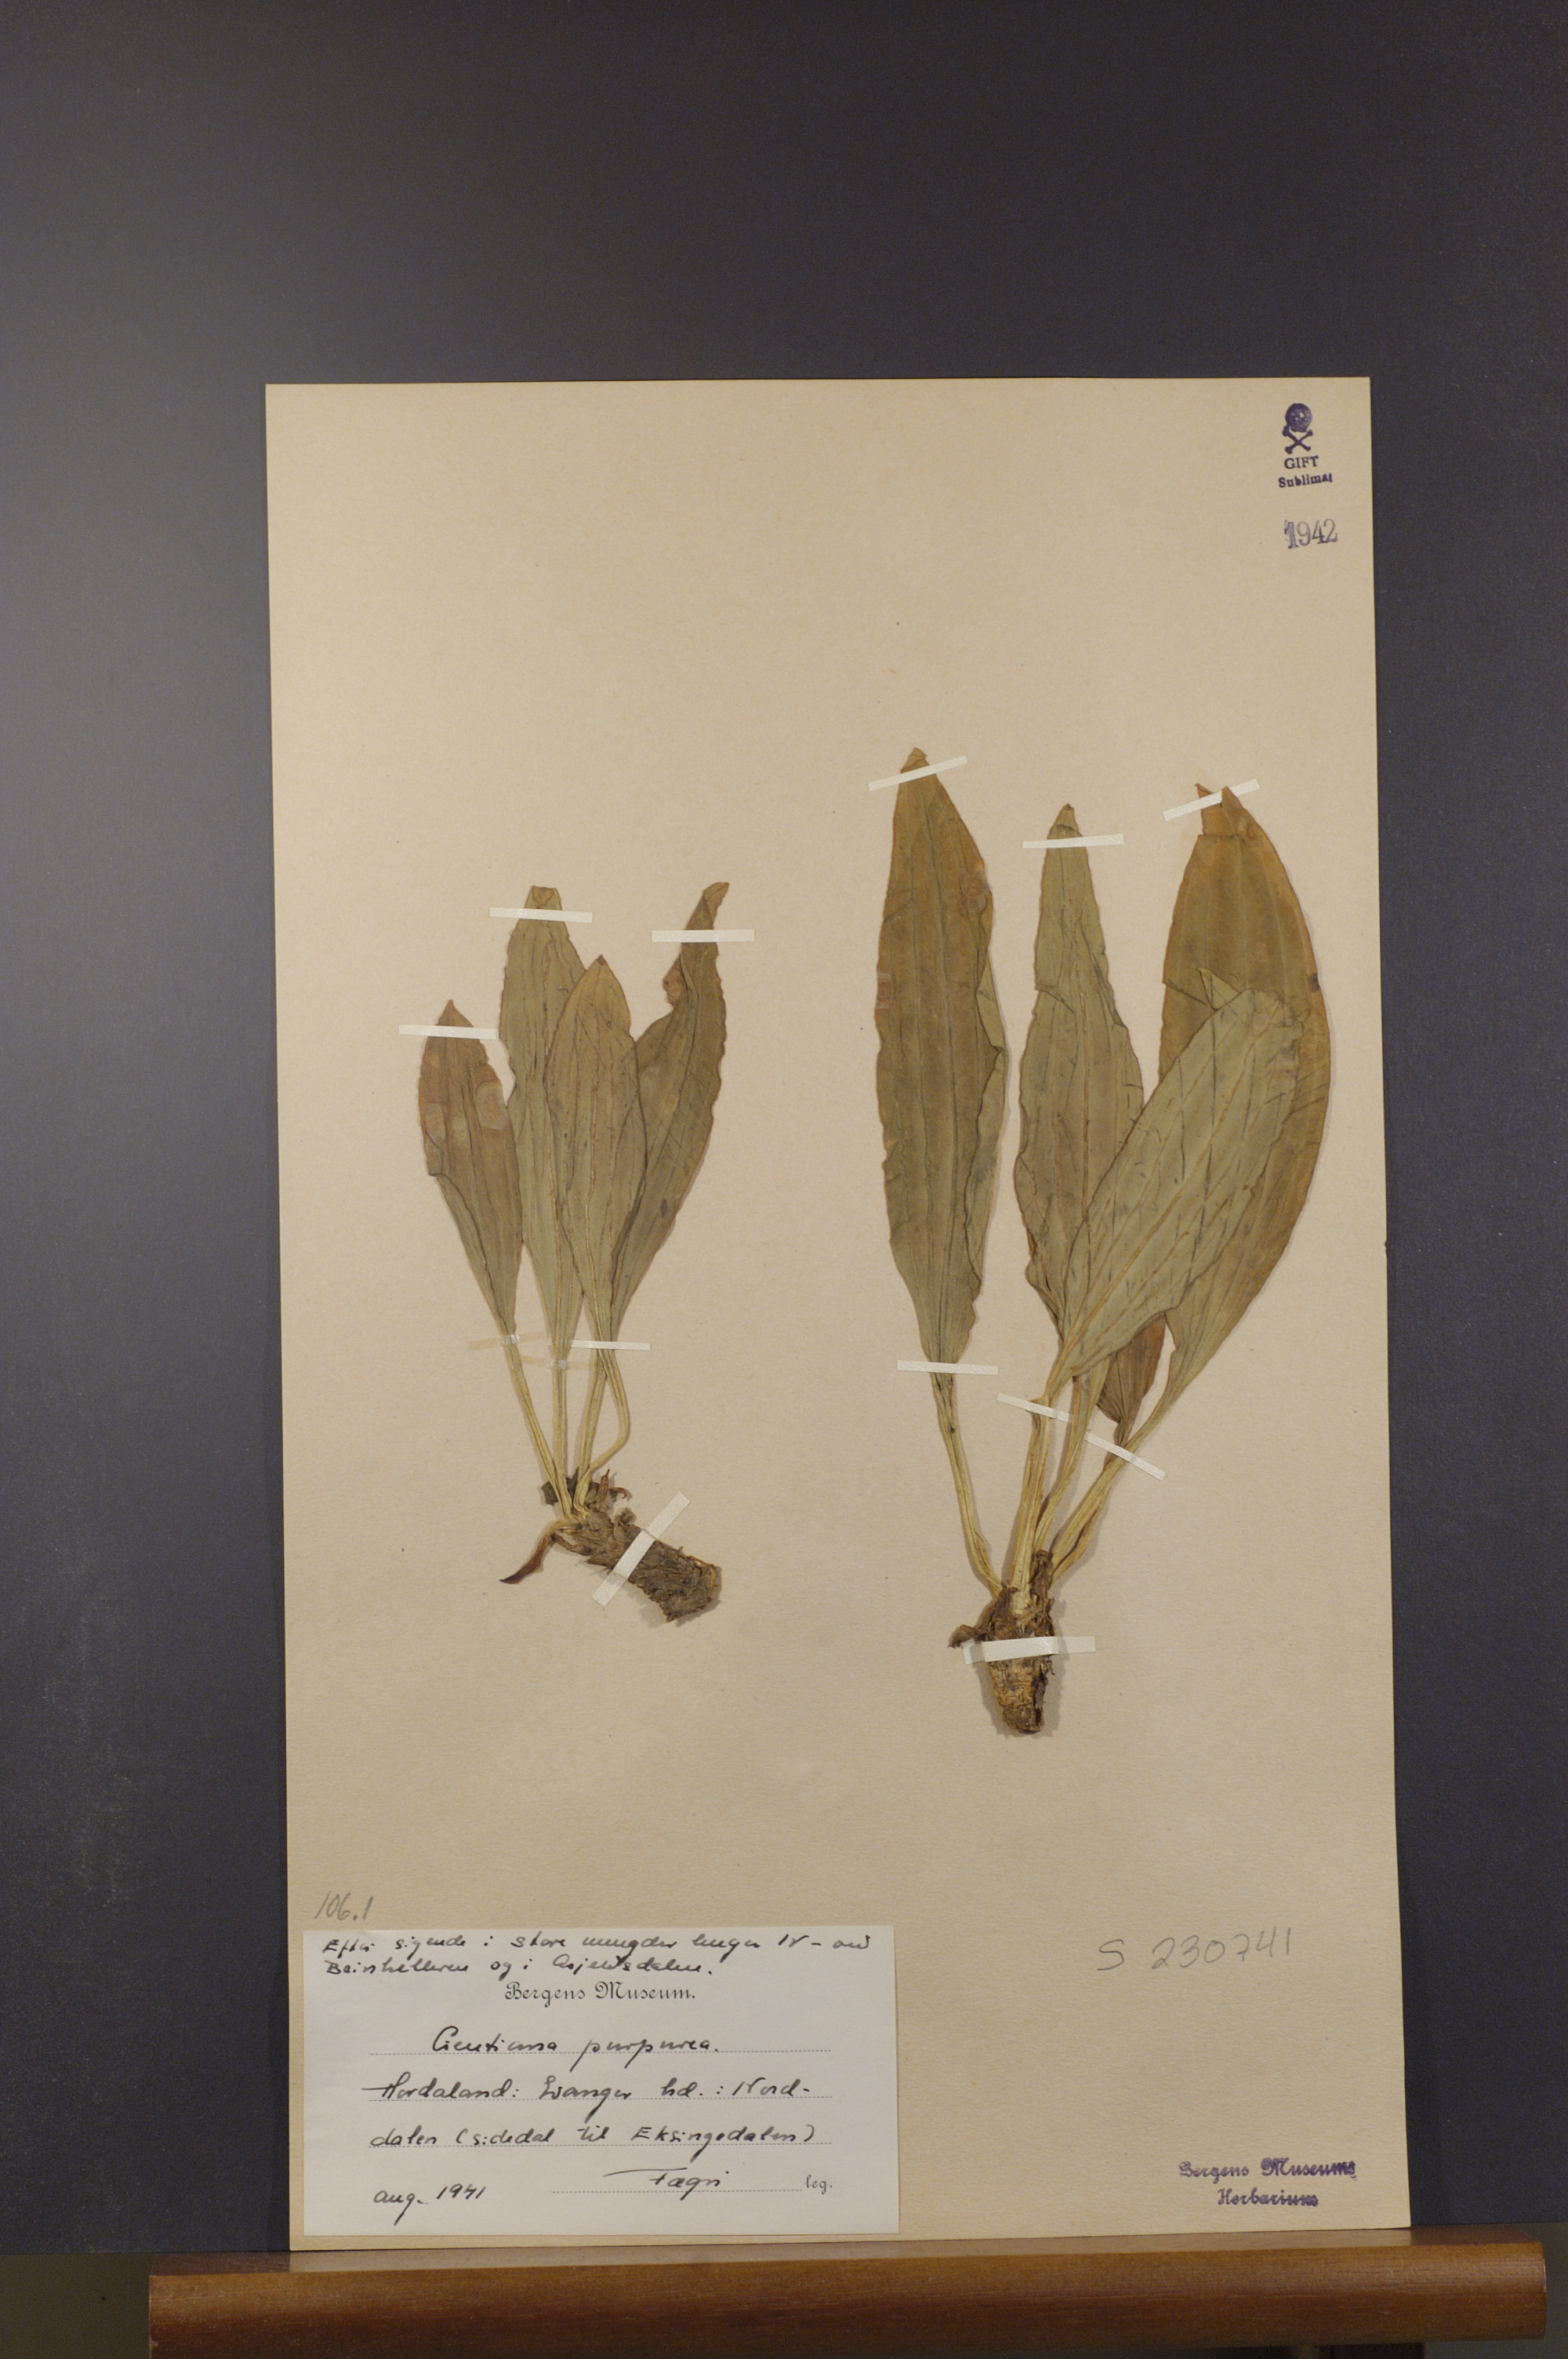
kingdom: Plantae
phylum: Tracheophyta
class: Magnoliopsida
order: Gentianales
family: Gentianaceae
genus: Gentiana
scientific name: Gentiana purpurea
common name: Purple gentian
